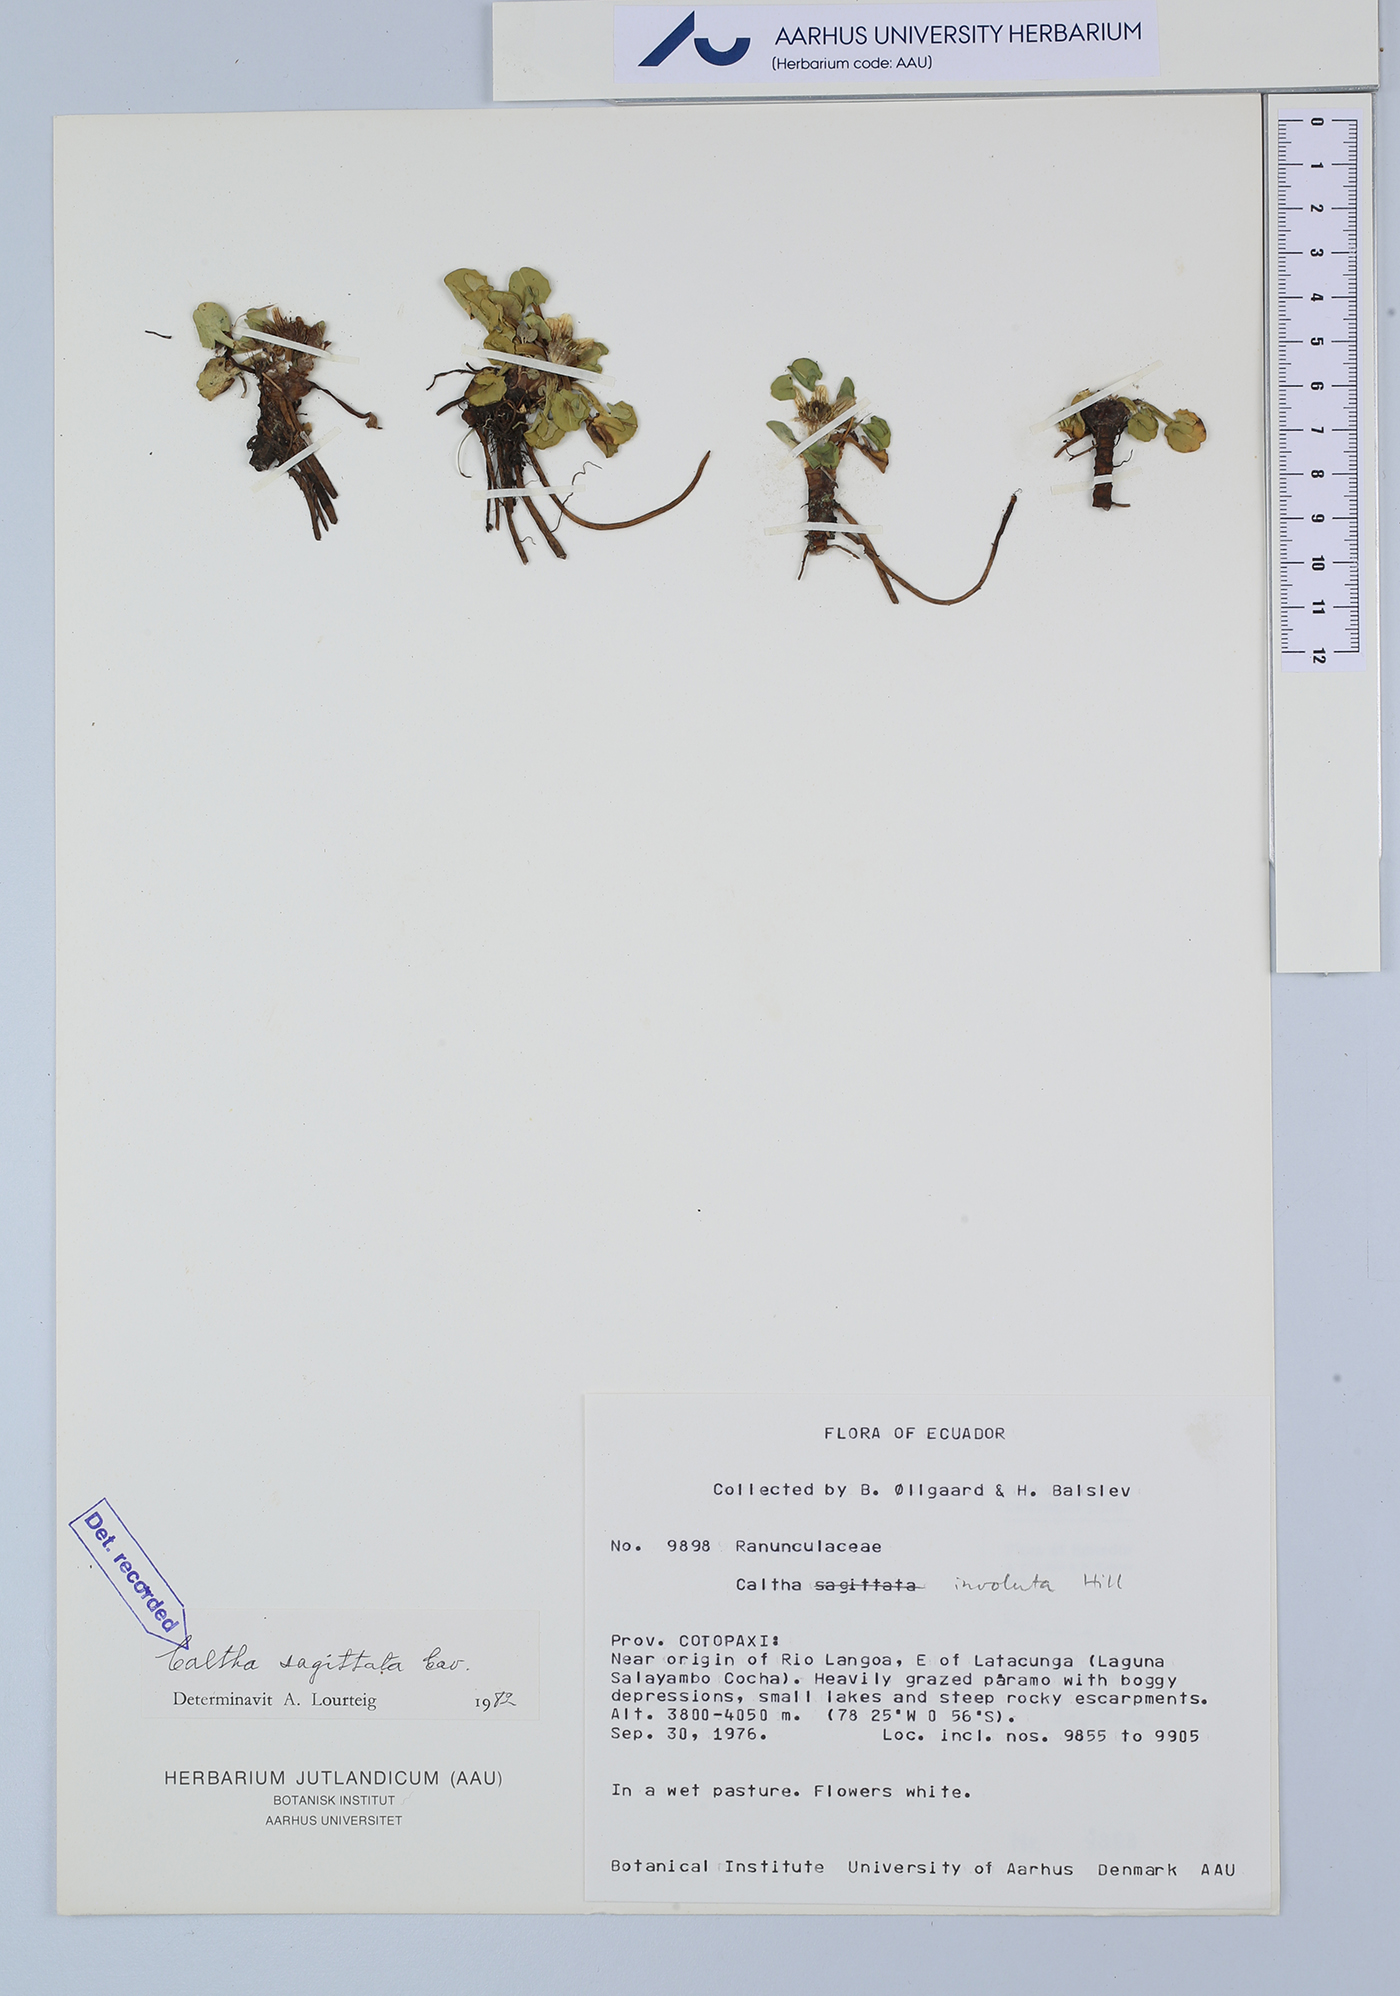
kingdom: Plantae
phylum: Tracheophyta
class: Magnoliopsida
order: Ranunculales
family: Ranunculaceae
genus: Caltha
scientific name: Caltha sagittata
